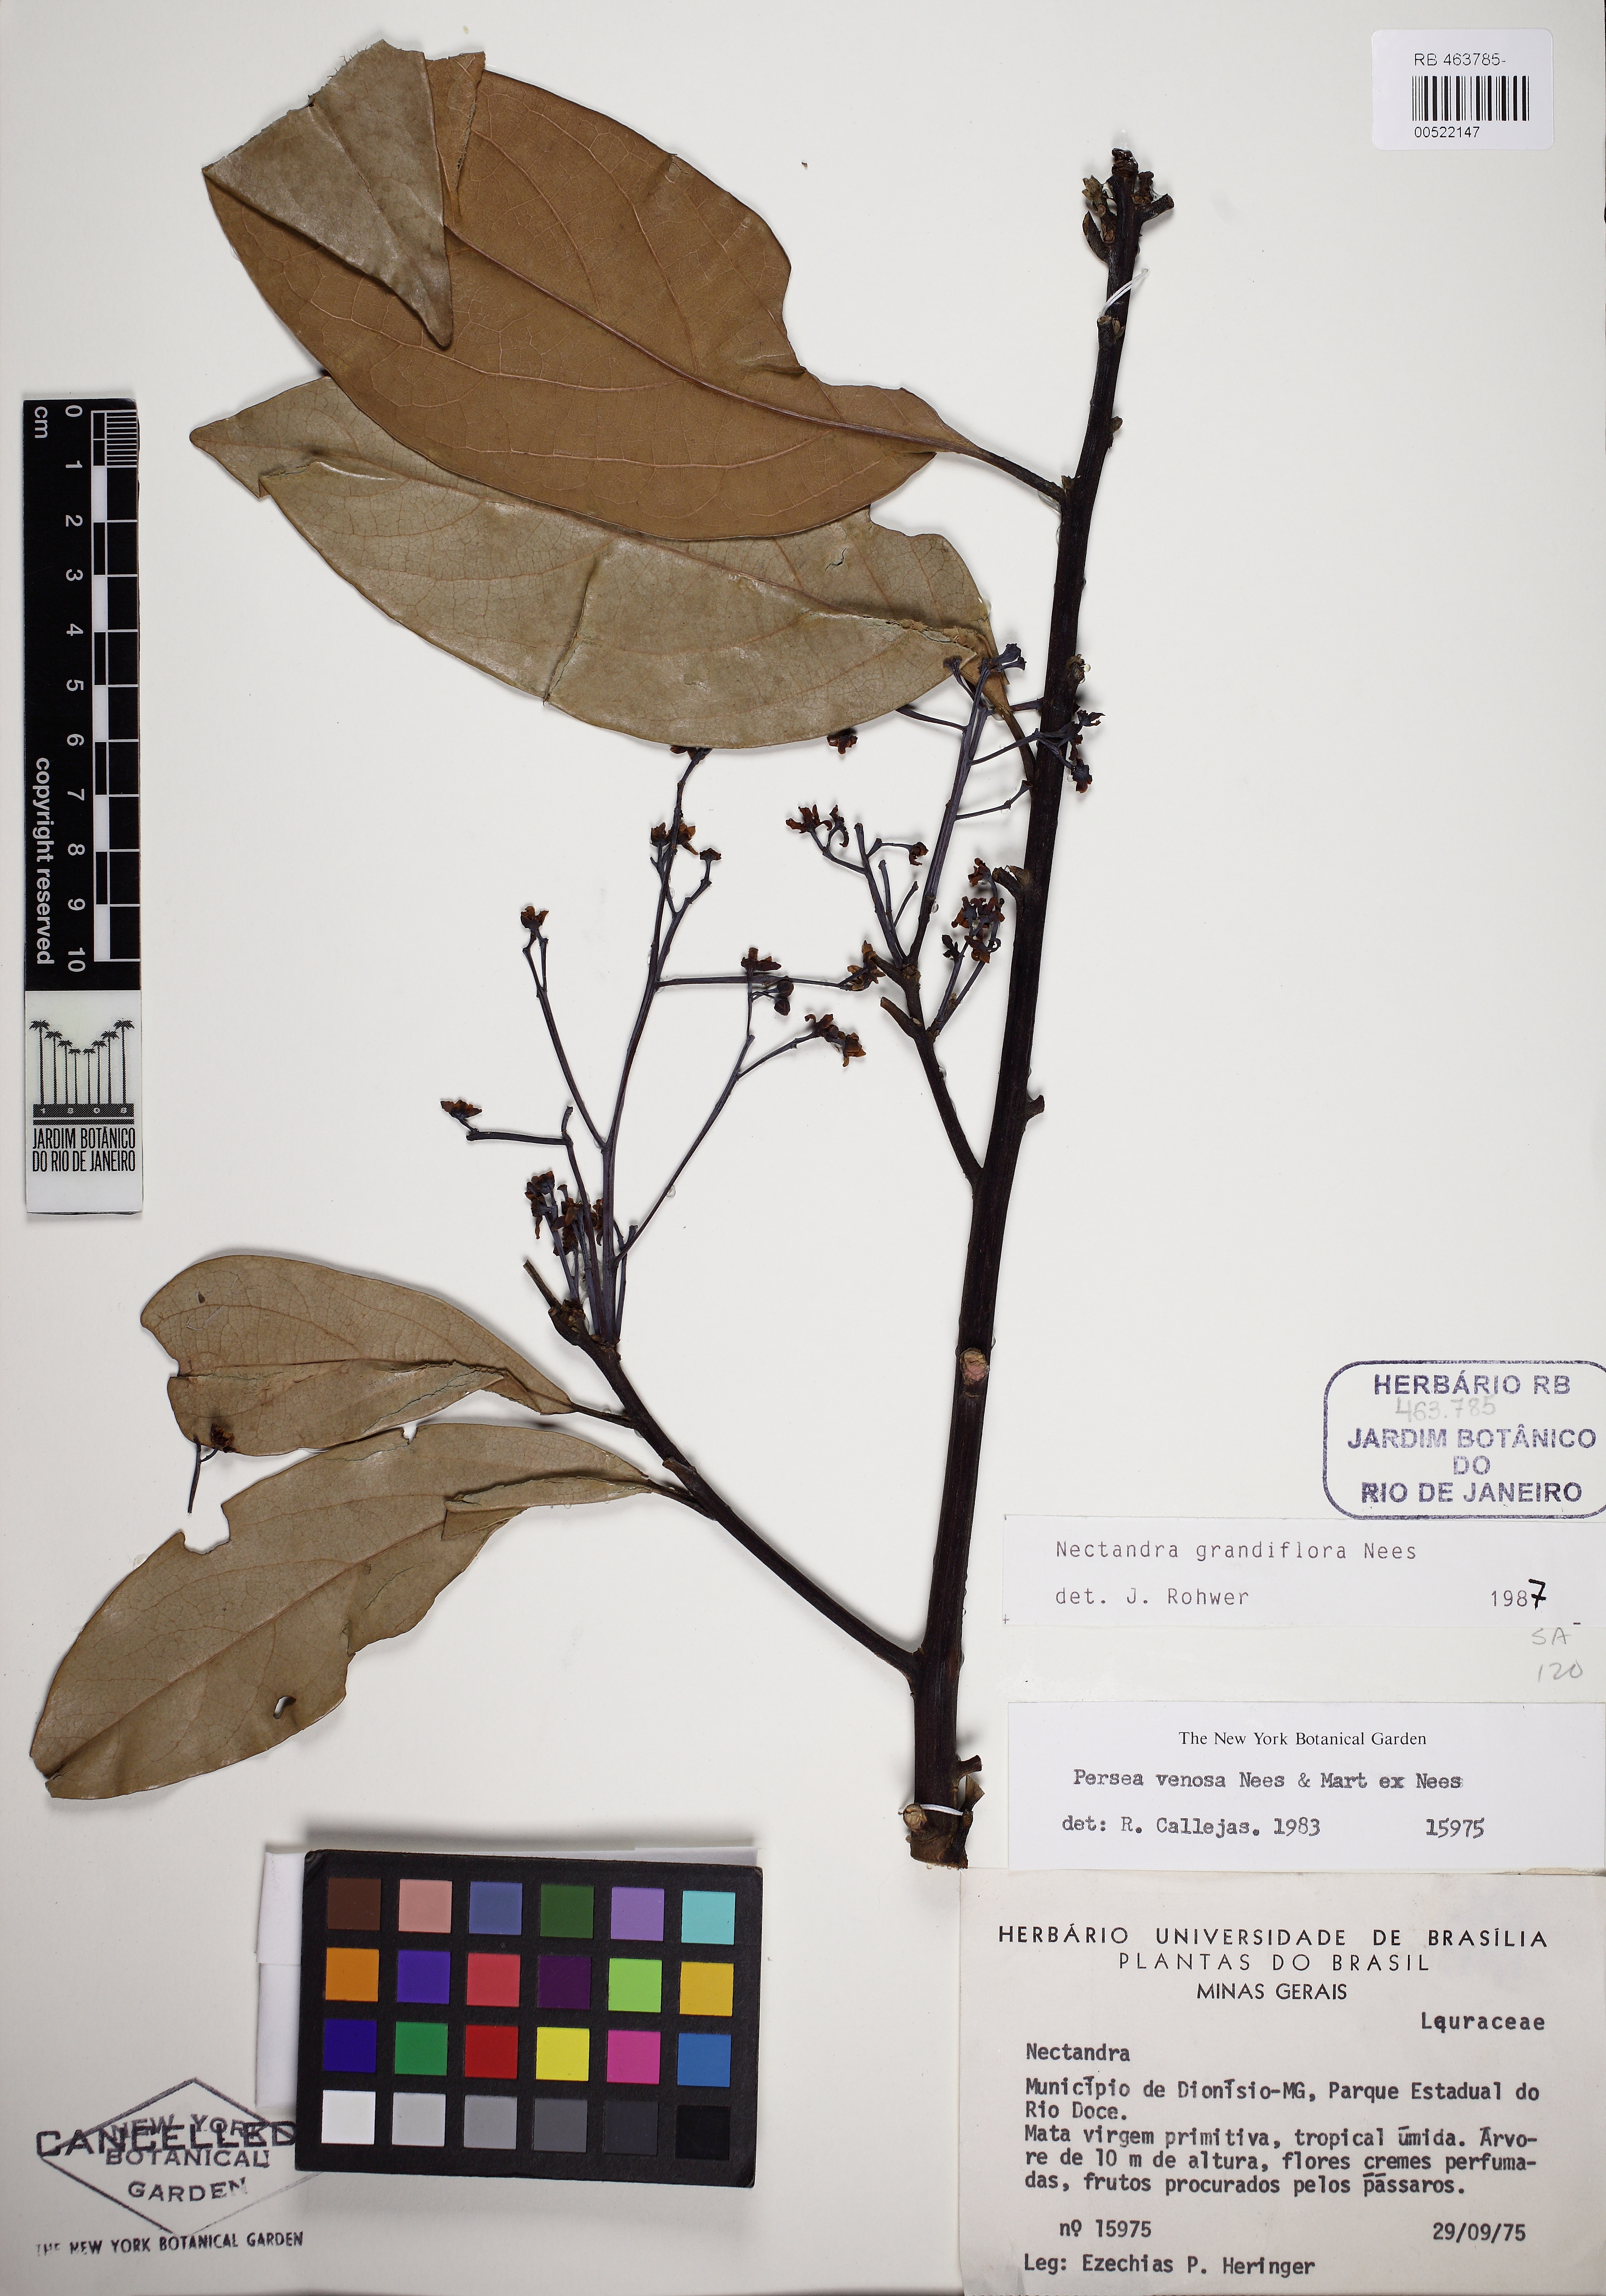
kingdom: Plantae
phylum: Tracheophyta
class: Magnoliopsida
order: Laurales
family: Lauraceae
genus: Nectandra
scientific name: Nectandra grandiflora
